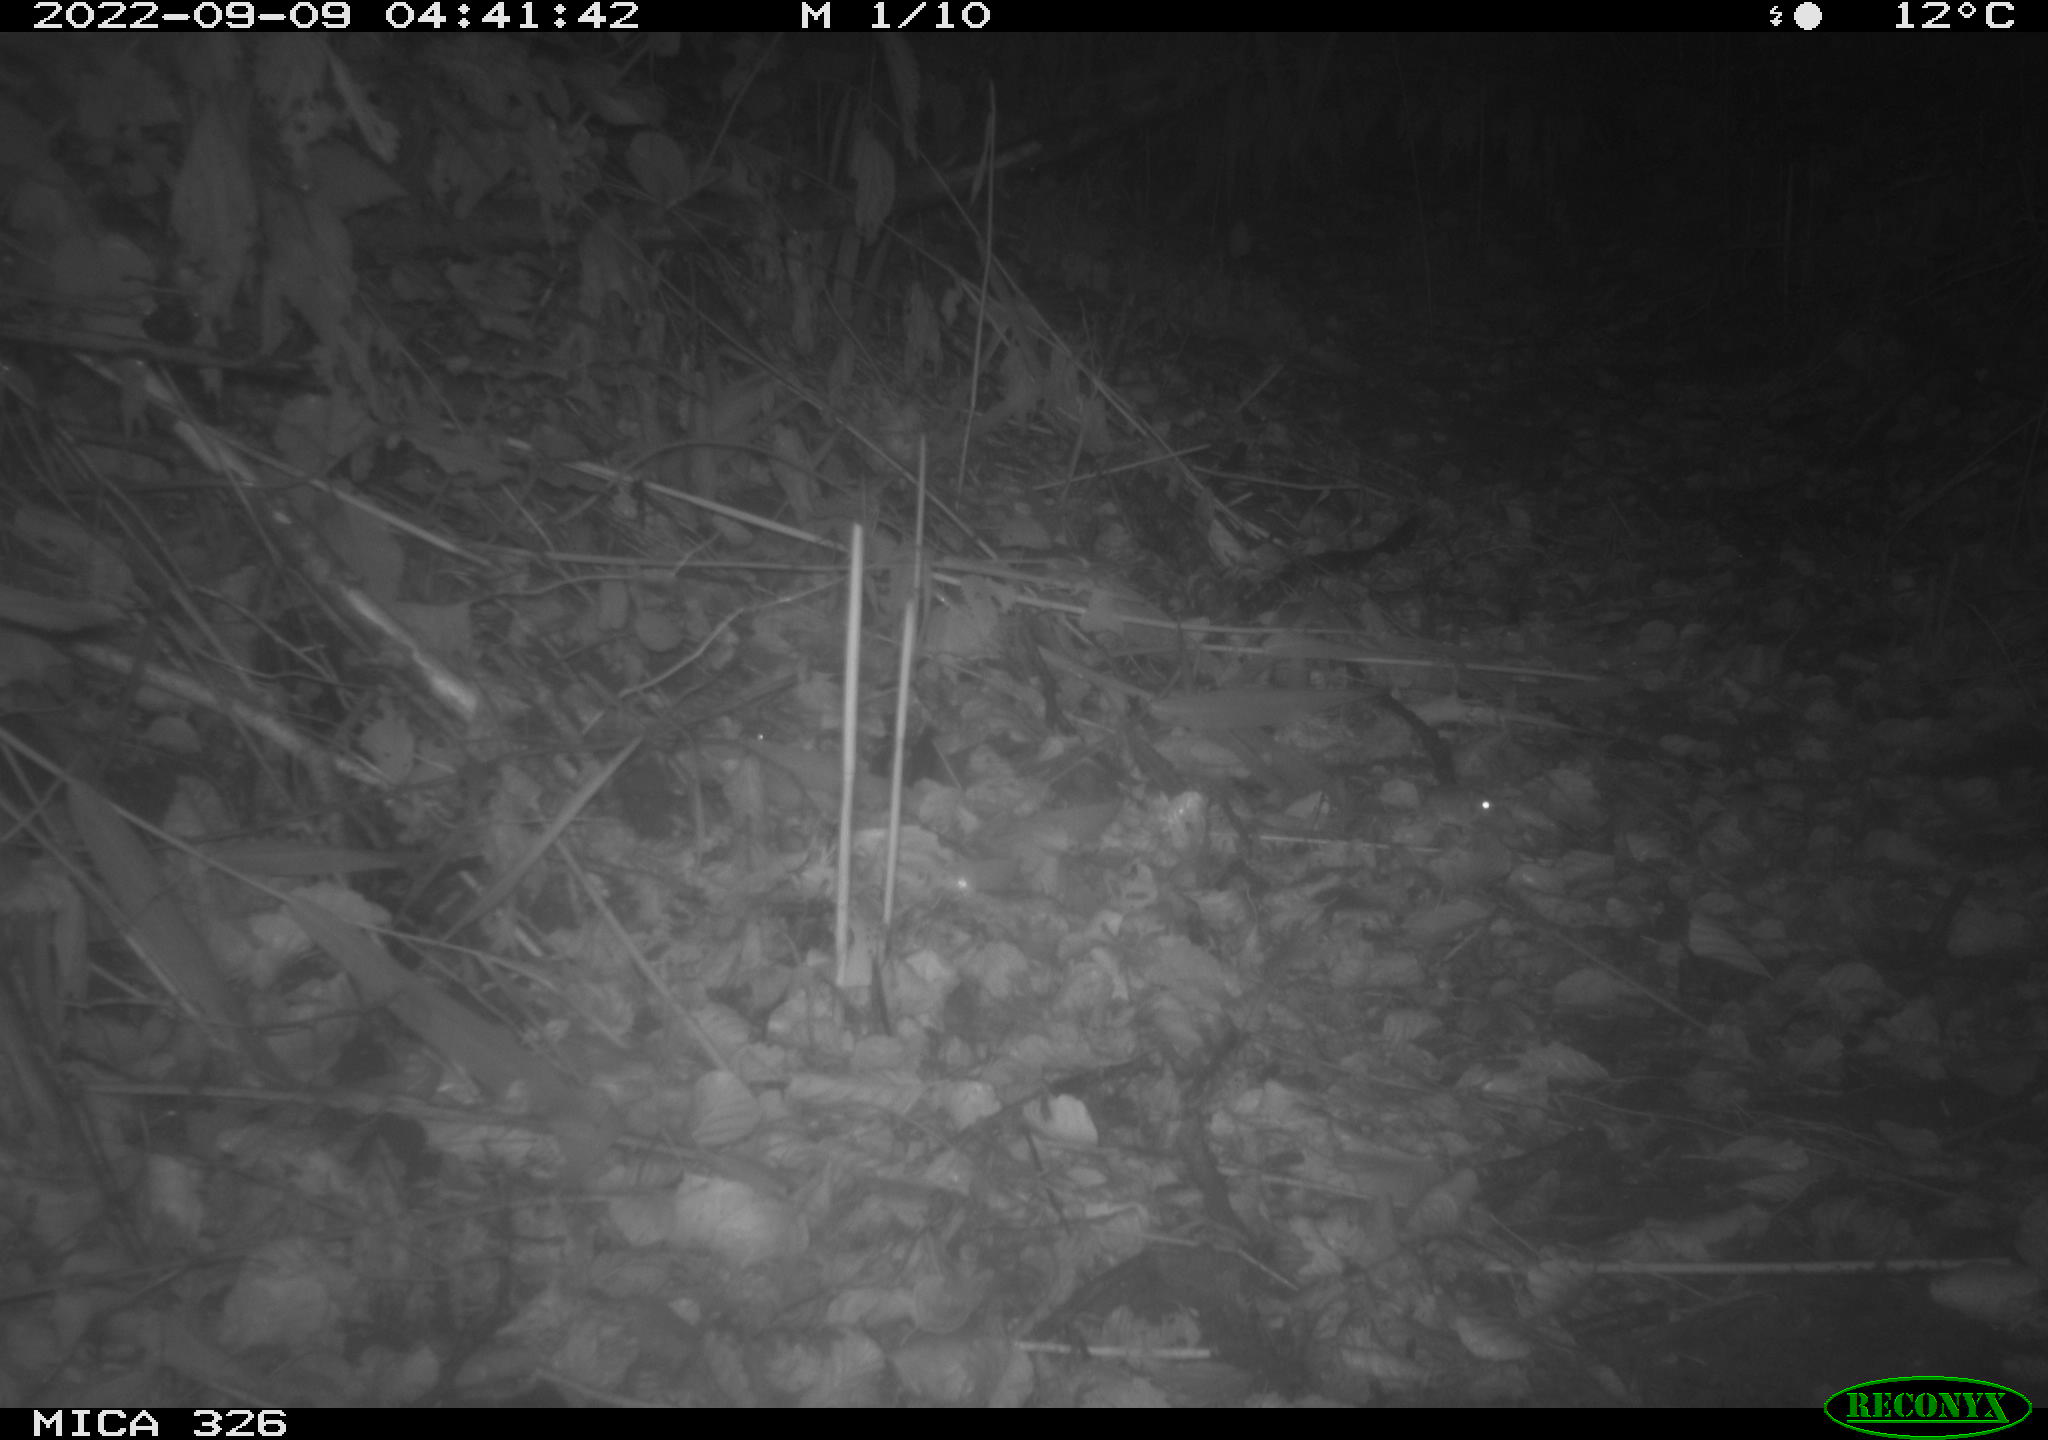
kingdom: Animalia
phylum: Chordata
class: Mammalia
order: Rodentia
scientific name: Rodentia
